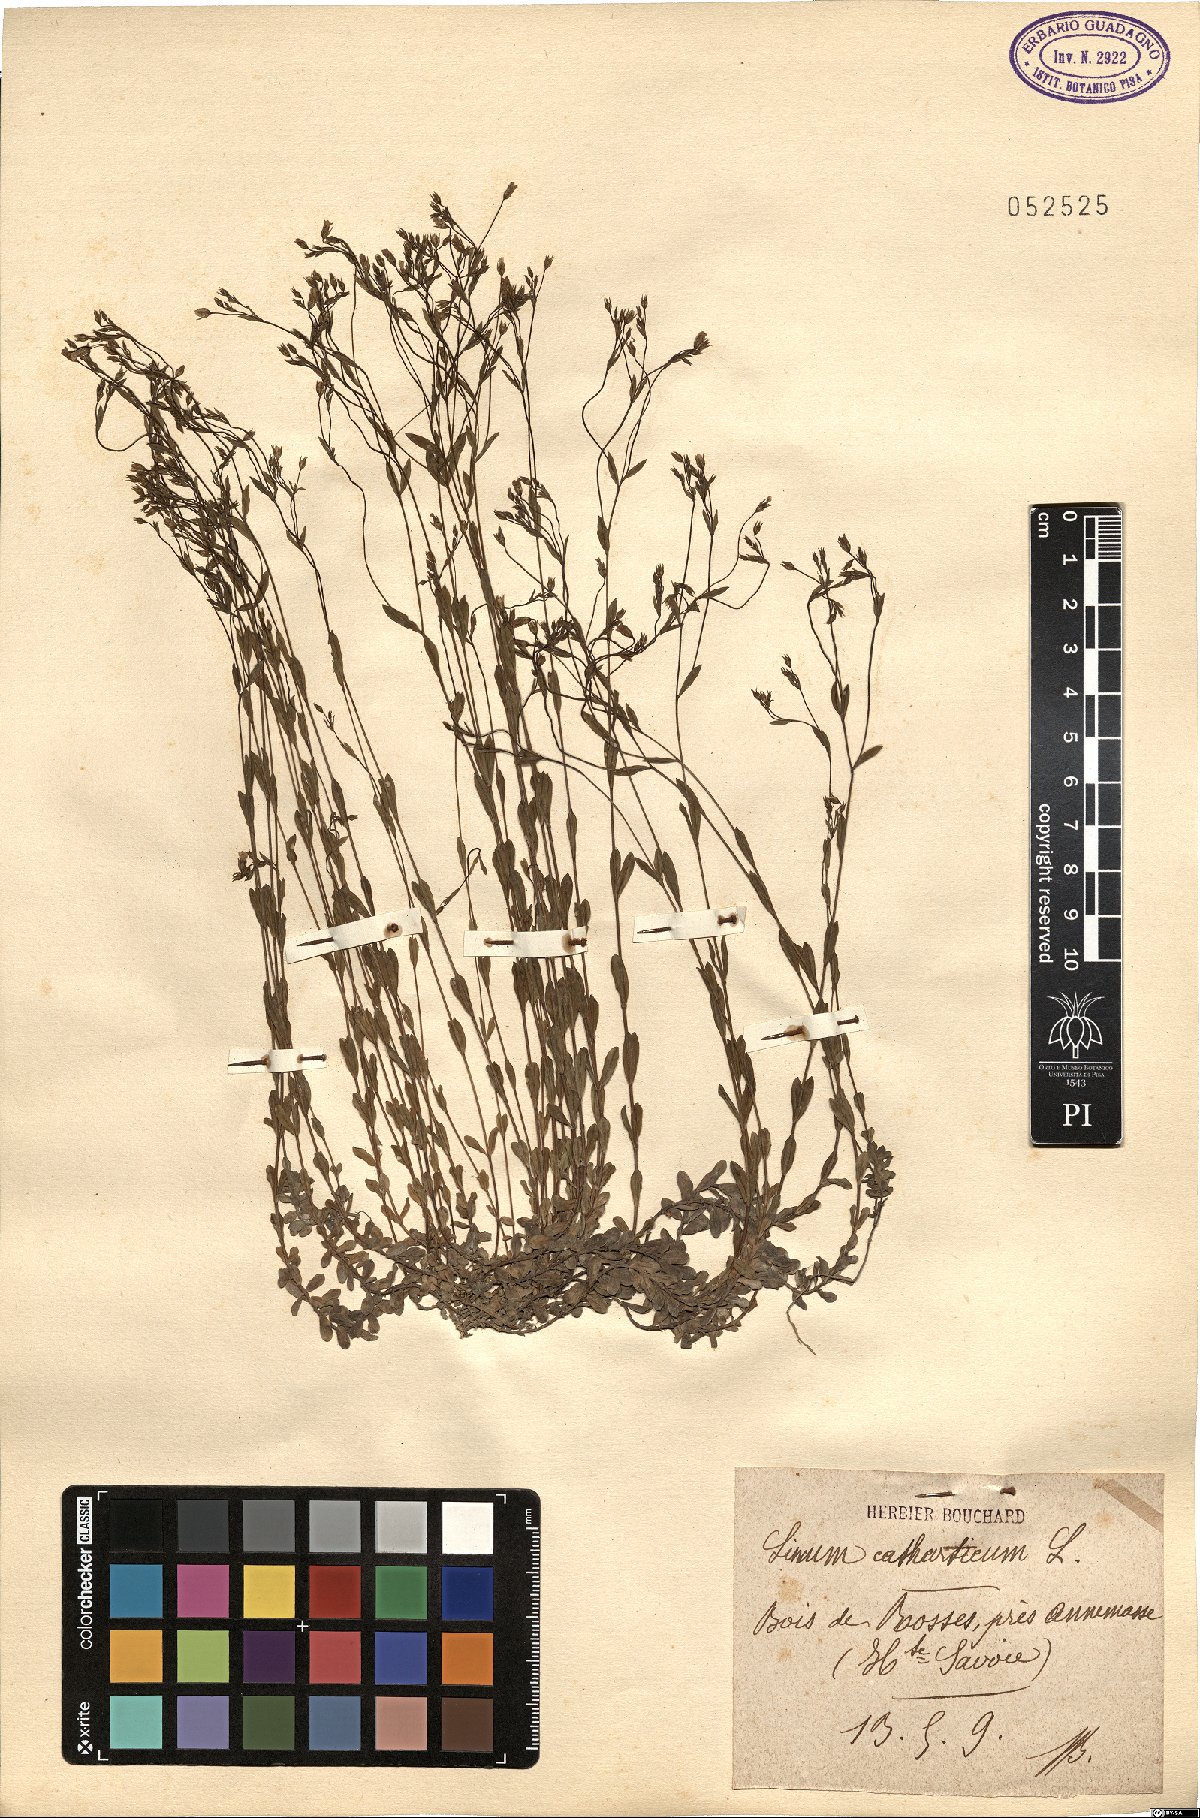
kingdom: Plantae
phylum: Tracheophyta
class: Magnoliopsida
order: Malpighiales
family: Linaceae
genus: Linum
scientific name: Linum catharticum
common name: Fairy flax
